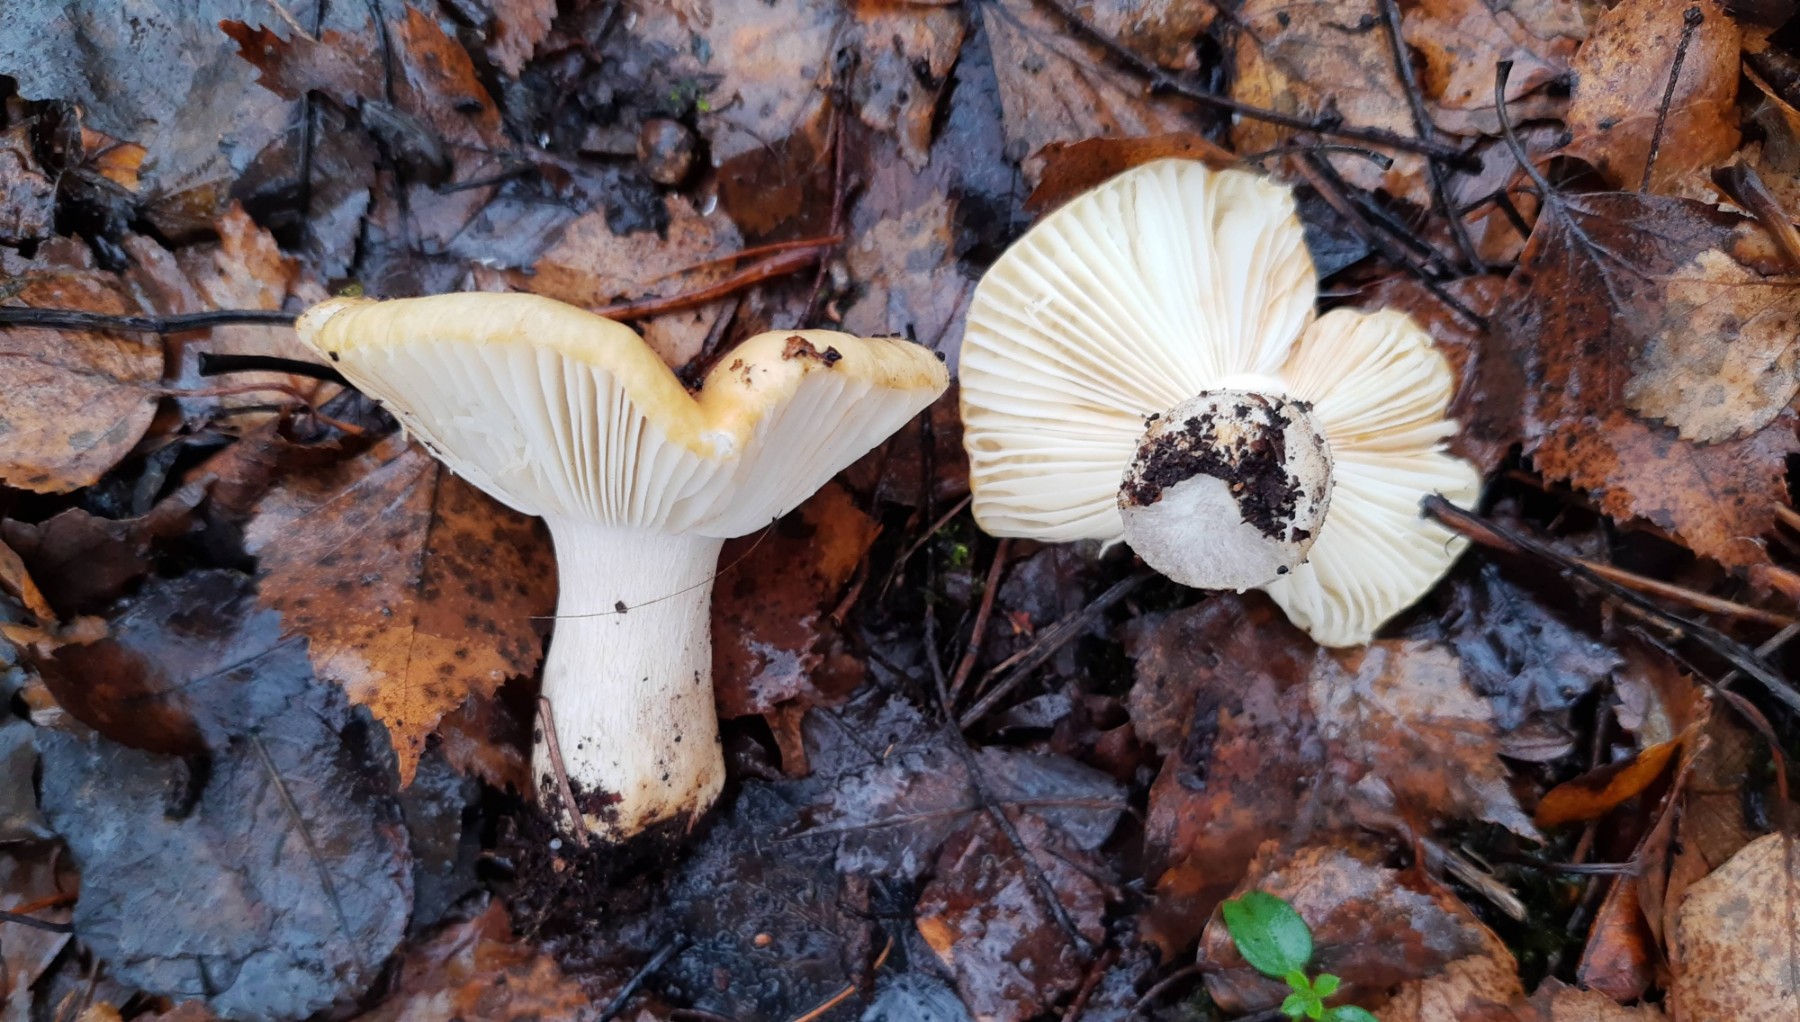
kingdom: Fungi
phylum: Basidiomycota
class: Agaricomycetes
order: Russulales
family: Russulaceae
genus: Russula
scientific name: Russula
